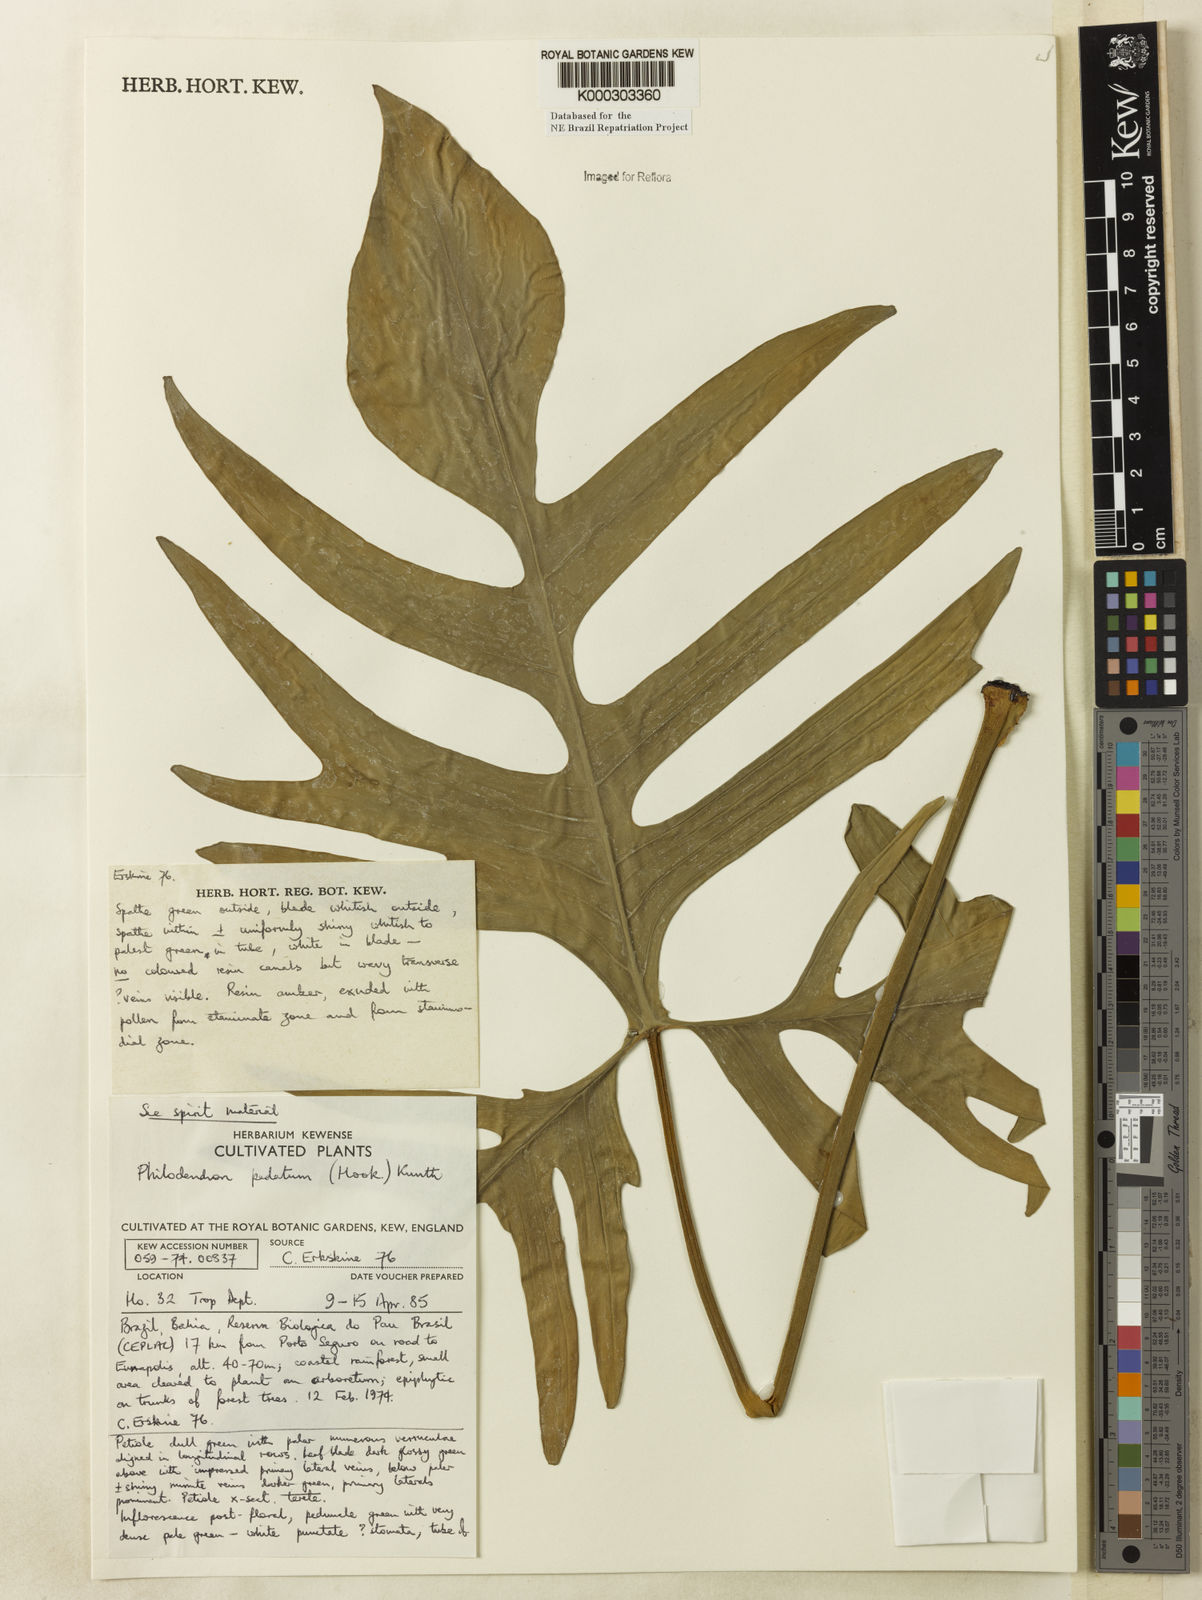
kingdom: Plantae
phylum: Tracheophyta
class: Liliopsida
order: Alismatales
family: Araceae
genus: Philodendron
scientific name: Philodendron pedatum
